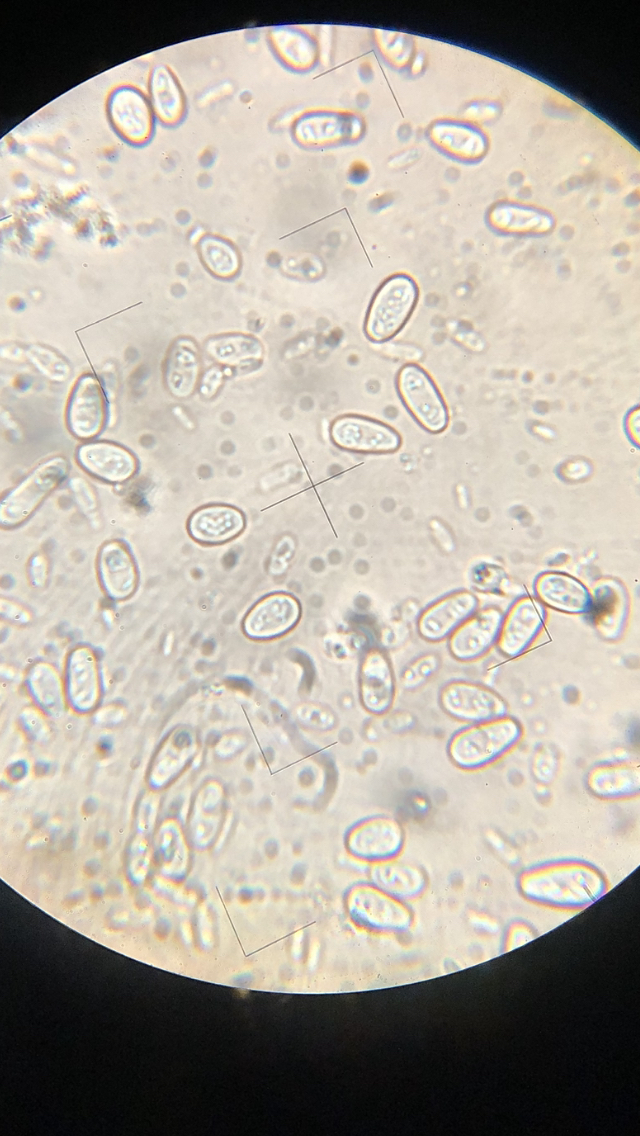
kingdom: Fungi
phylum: Ascomycota
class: Sordariomycetes
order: Xylariales
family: Hypoxylaceae
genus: Nodulisporium
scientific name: Nodulisporium cecidiogenes
